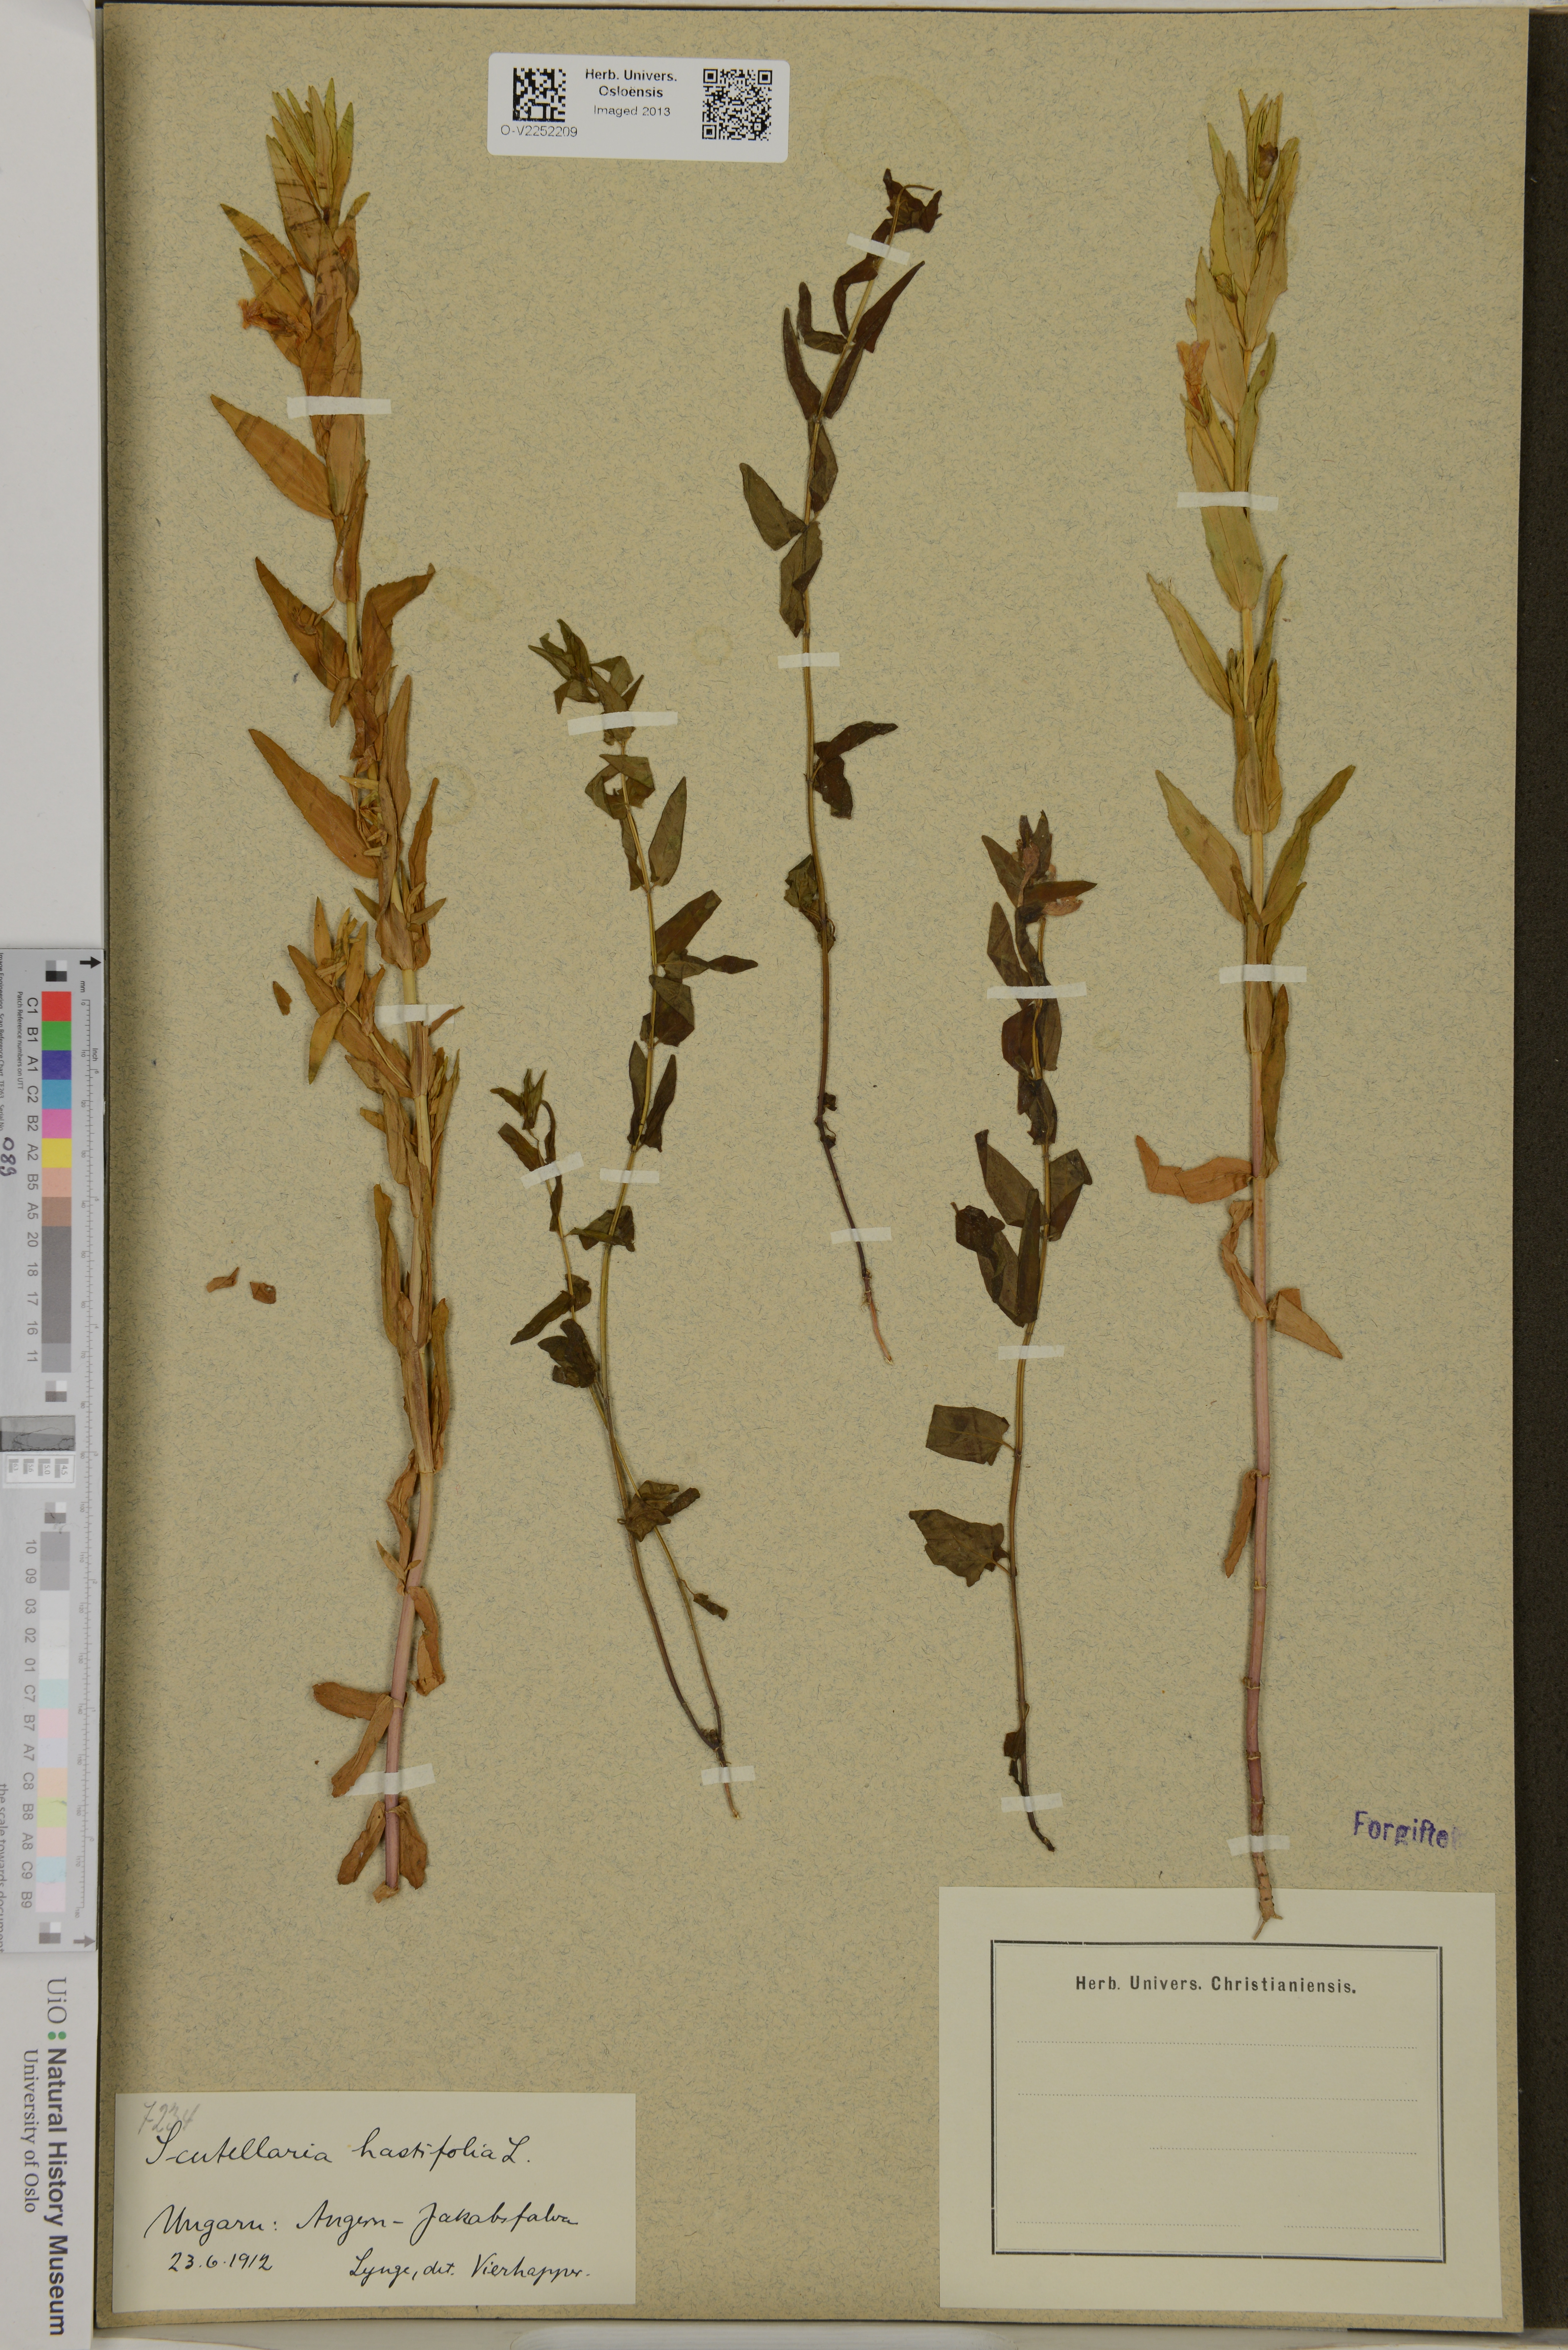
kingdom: Plantae
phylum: Tracheophyta
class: Magnoliopsida
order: Lamiales
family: Lamiaceae
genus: Scutellaria
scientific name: Scutellaria hastifolia
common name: Norfolk skullcap
